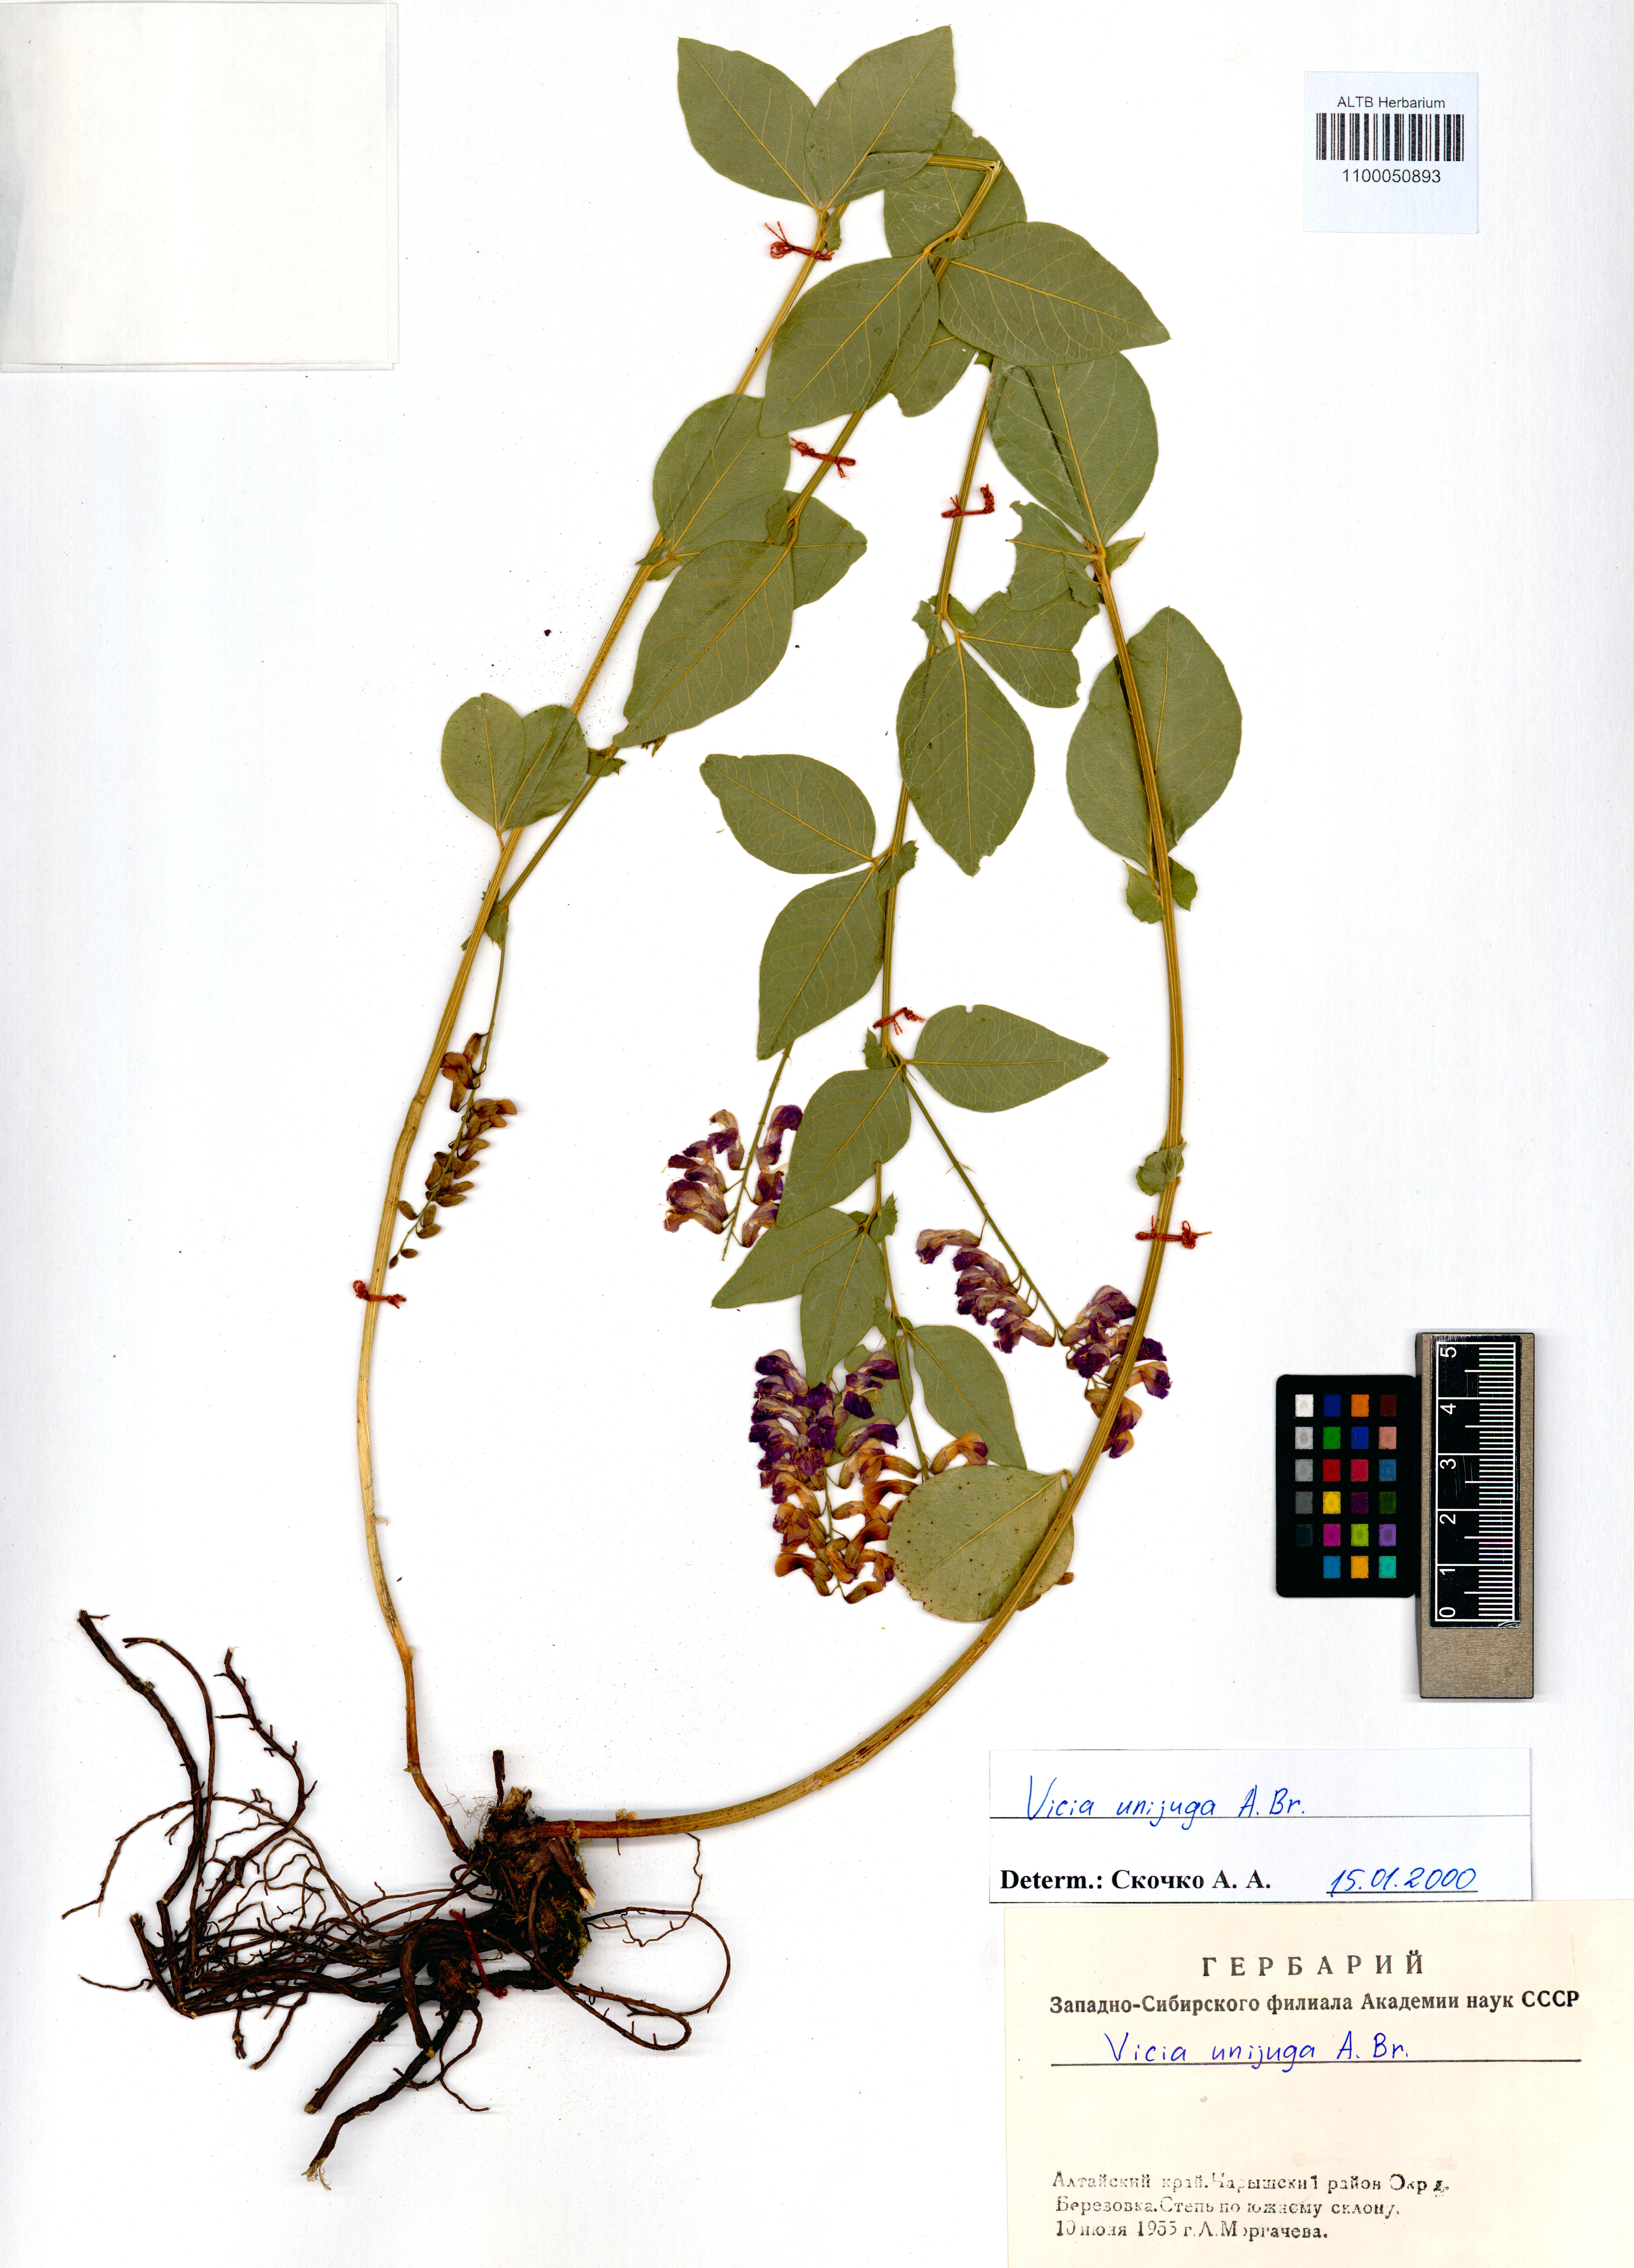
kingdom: Plantae
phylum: Tracheophyta
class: Magnoliopsida
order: Fabales
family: Fabaceae
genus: Vicia
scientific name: Vicia unijuga
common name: Two-leaf vetch
